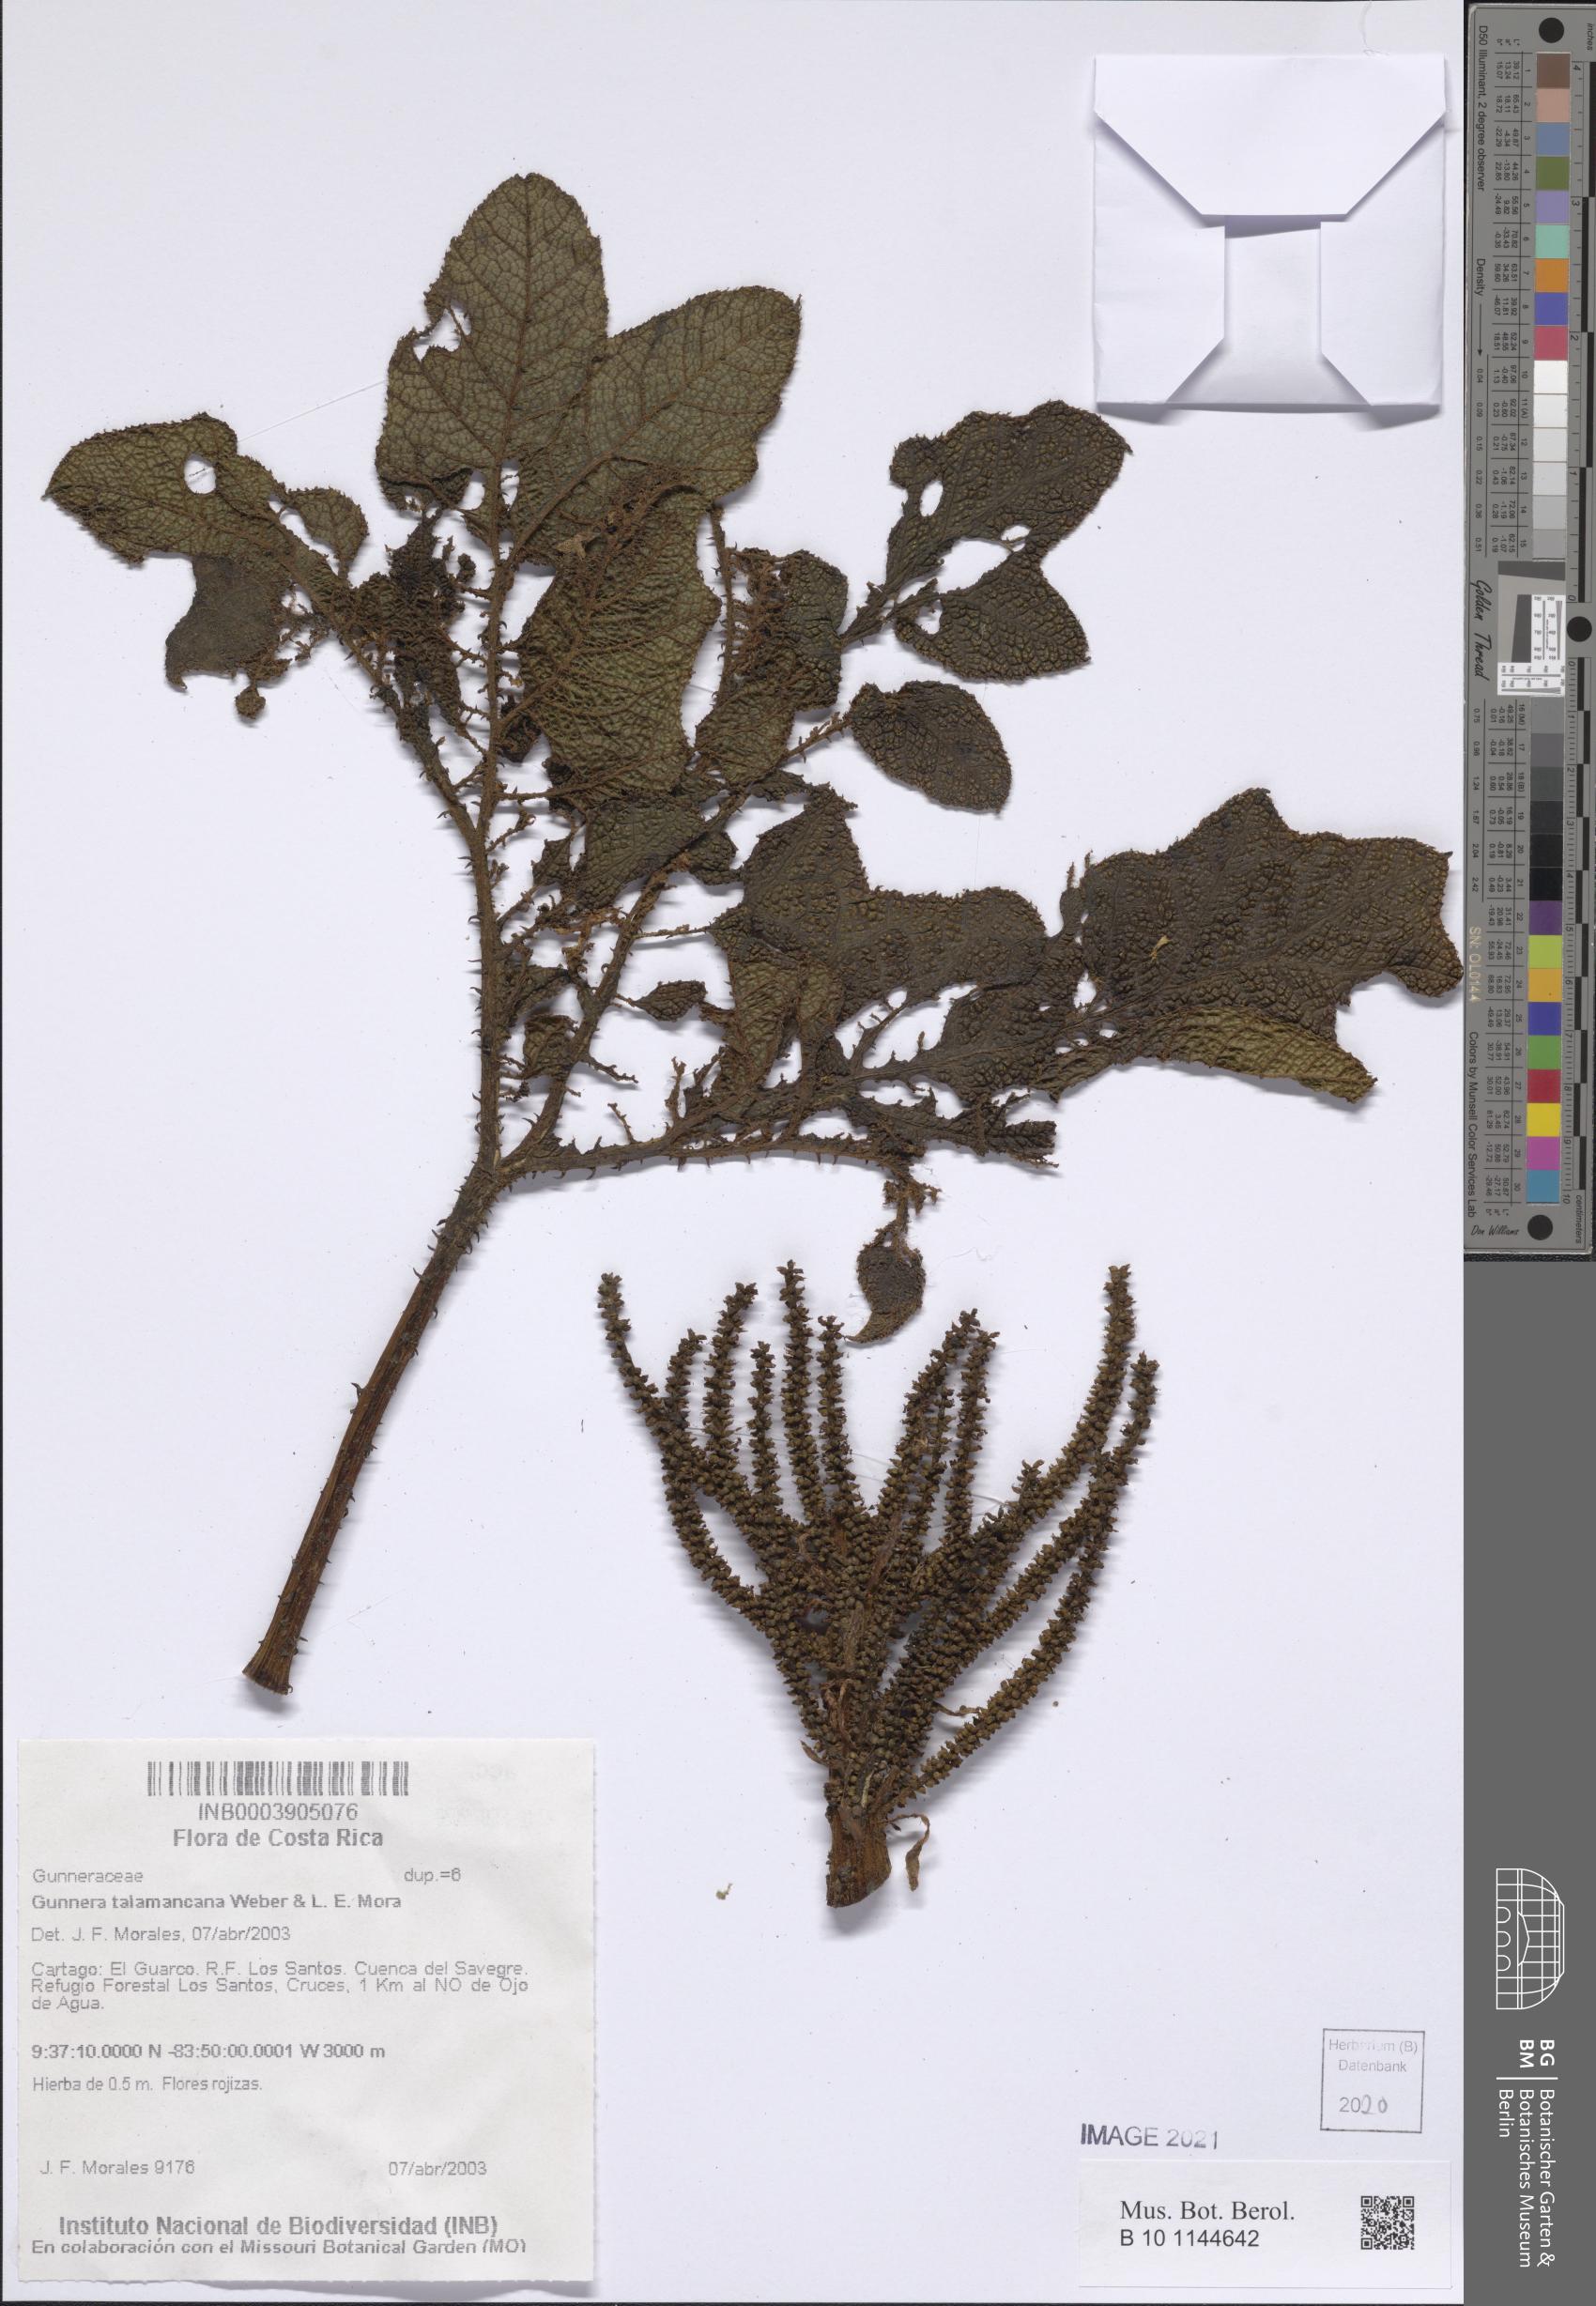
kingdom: Plantae
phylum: Tracheophyta
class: Magnoliopsida
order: Gunnerales
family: Gunneraceae
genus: Gunnera
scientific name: Gunnera talamancana
